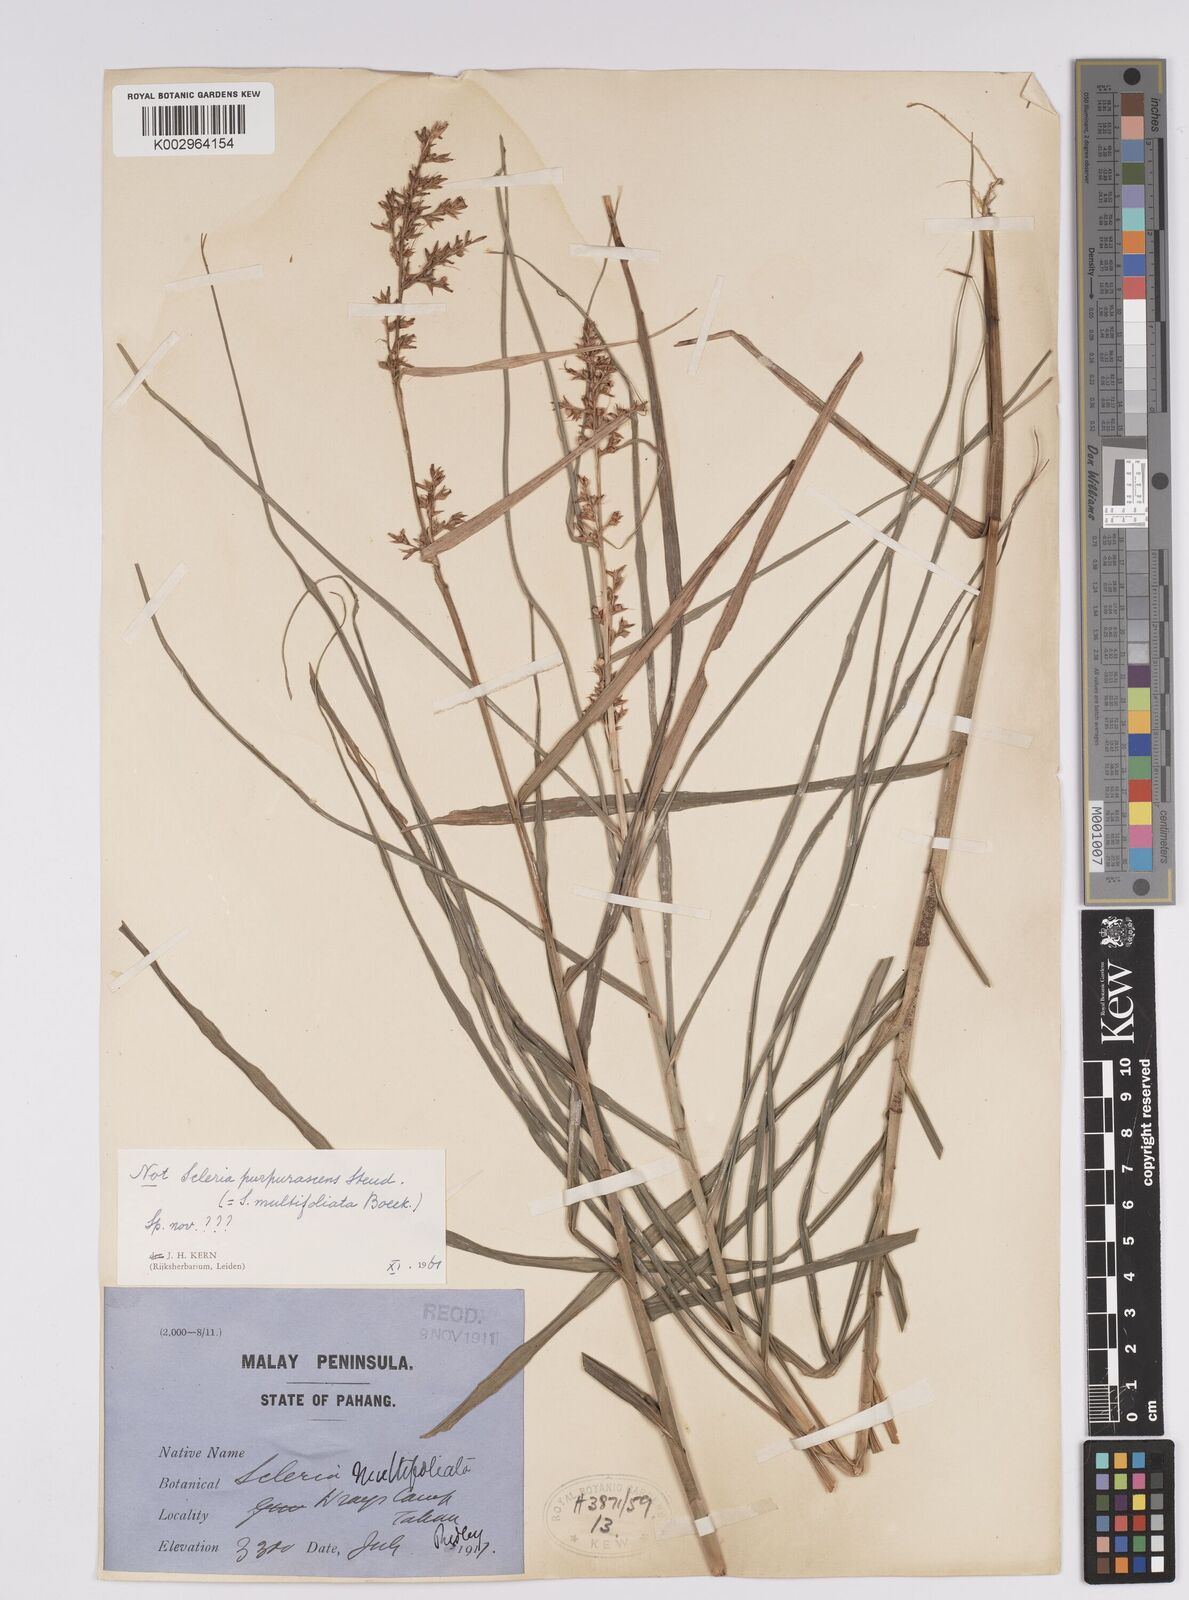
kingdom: Plantae
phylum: Tracheophyta
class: Liliopsida
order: Poales
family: Cyperaceae
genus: Scleria
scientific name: Scleria
